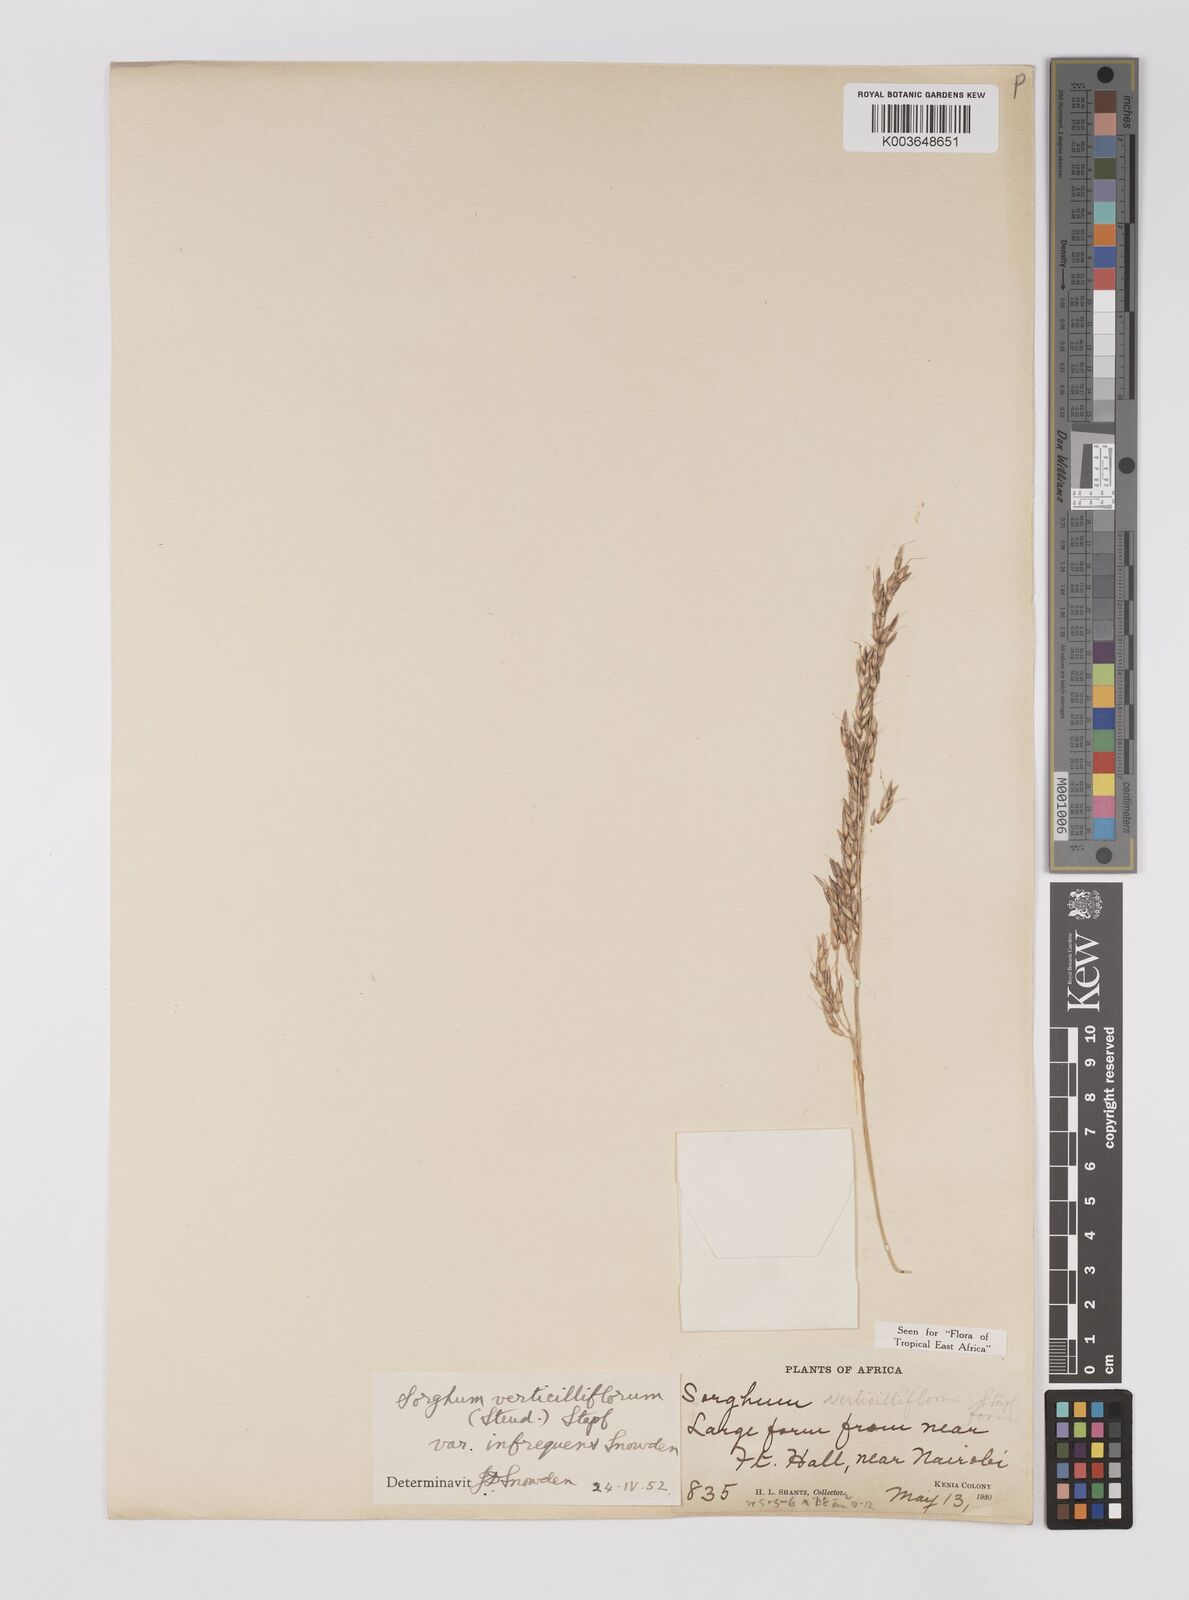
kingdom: Plantae
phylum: Tracheophyta
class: Liliopsida
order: Poales
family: Poaceae
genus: Sorghum
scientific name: Sorghum arundinaceum
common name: Sorghum
